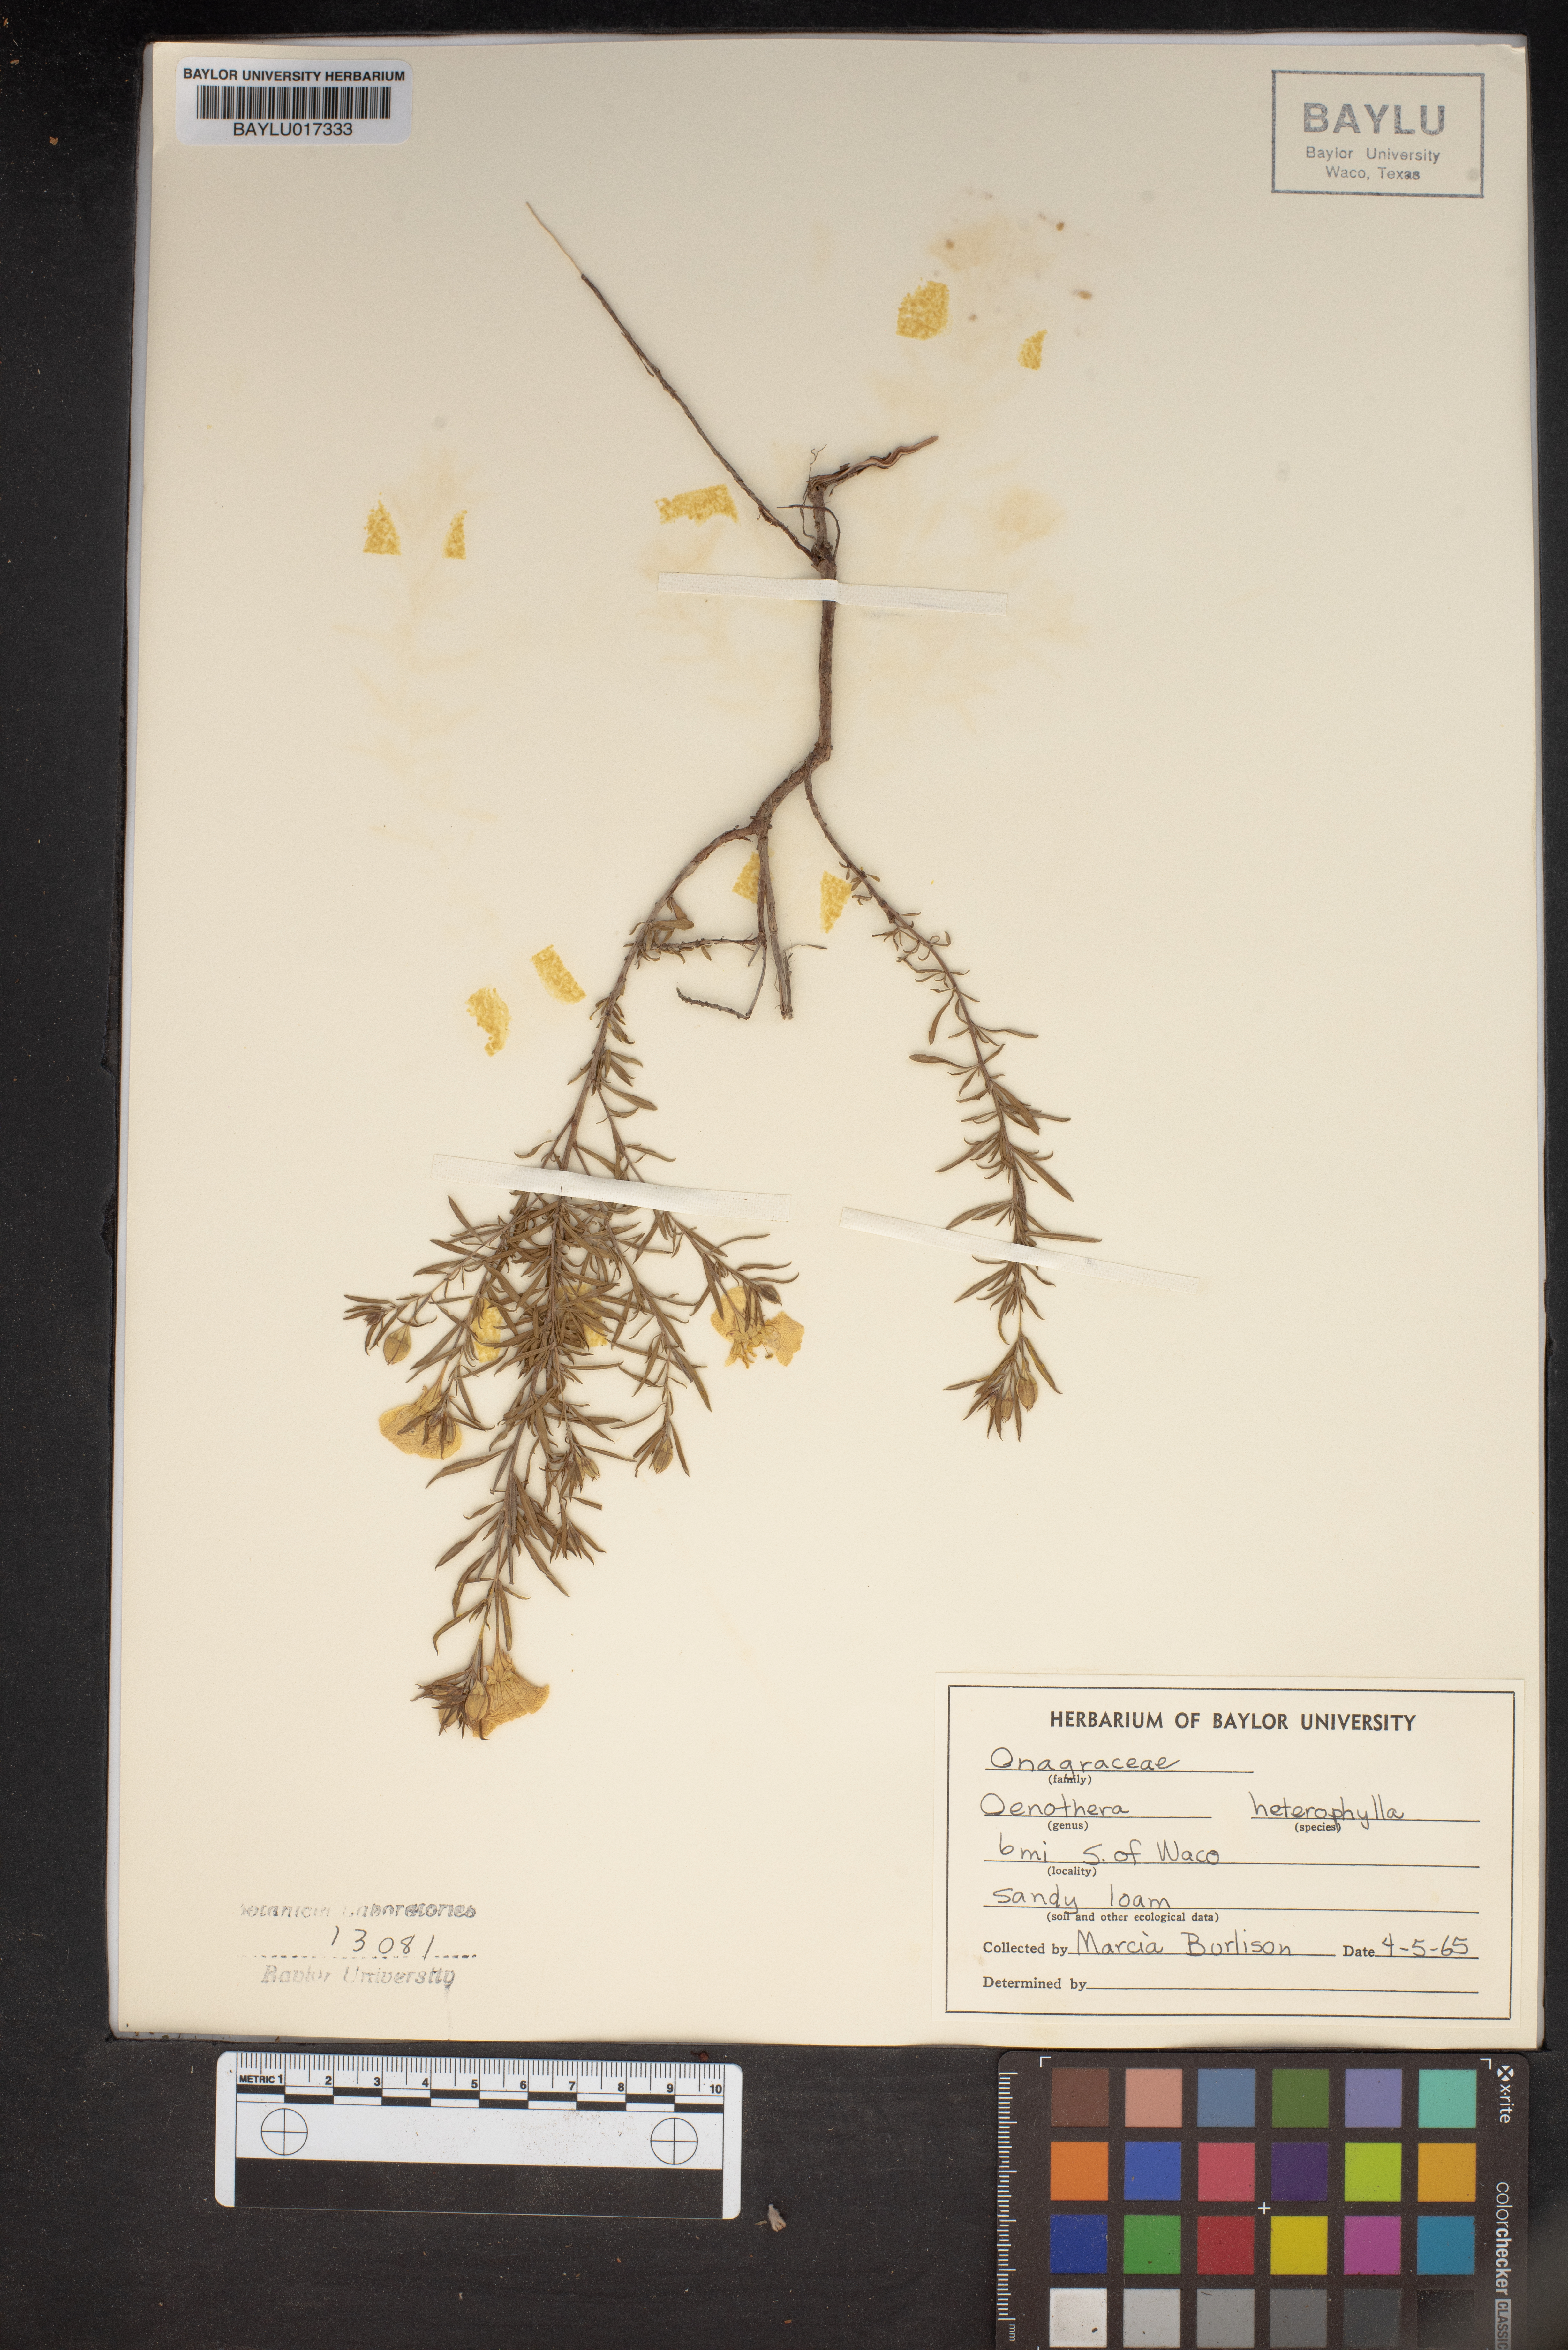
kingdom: Plantae
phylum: Tracheophyta
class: Magnoliopsida
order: Myrtales
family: Onagraceae
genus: Camissonia
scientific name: Camissonia dentata
